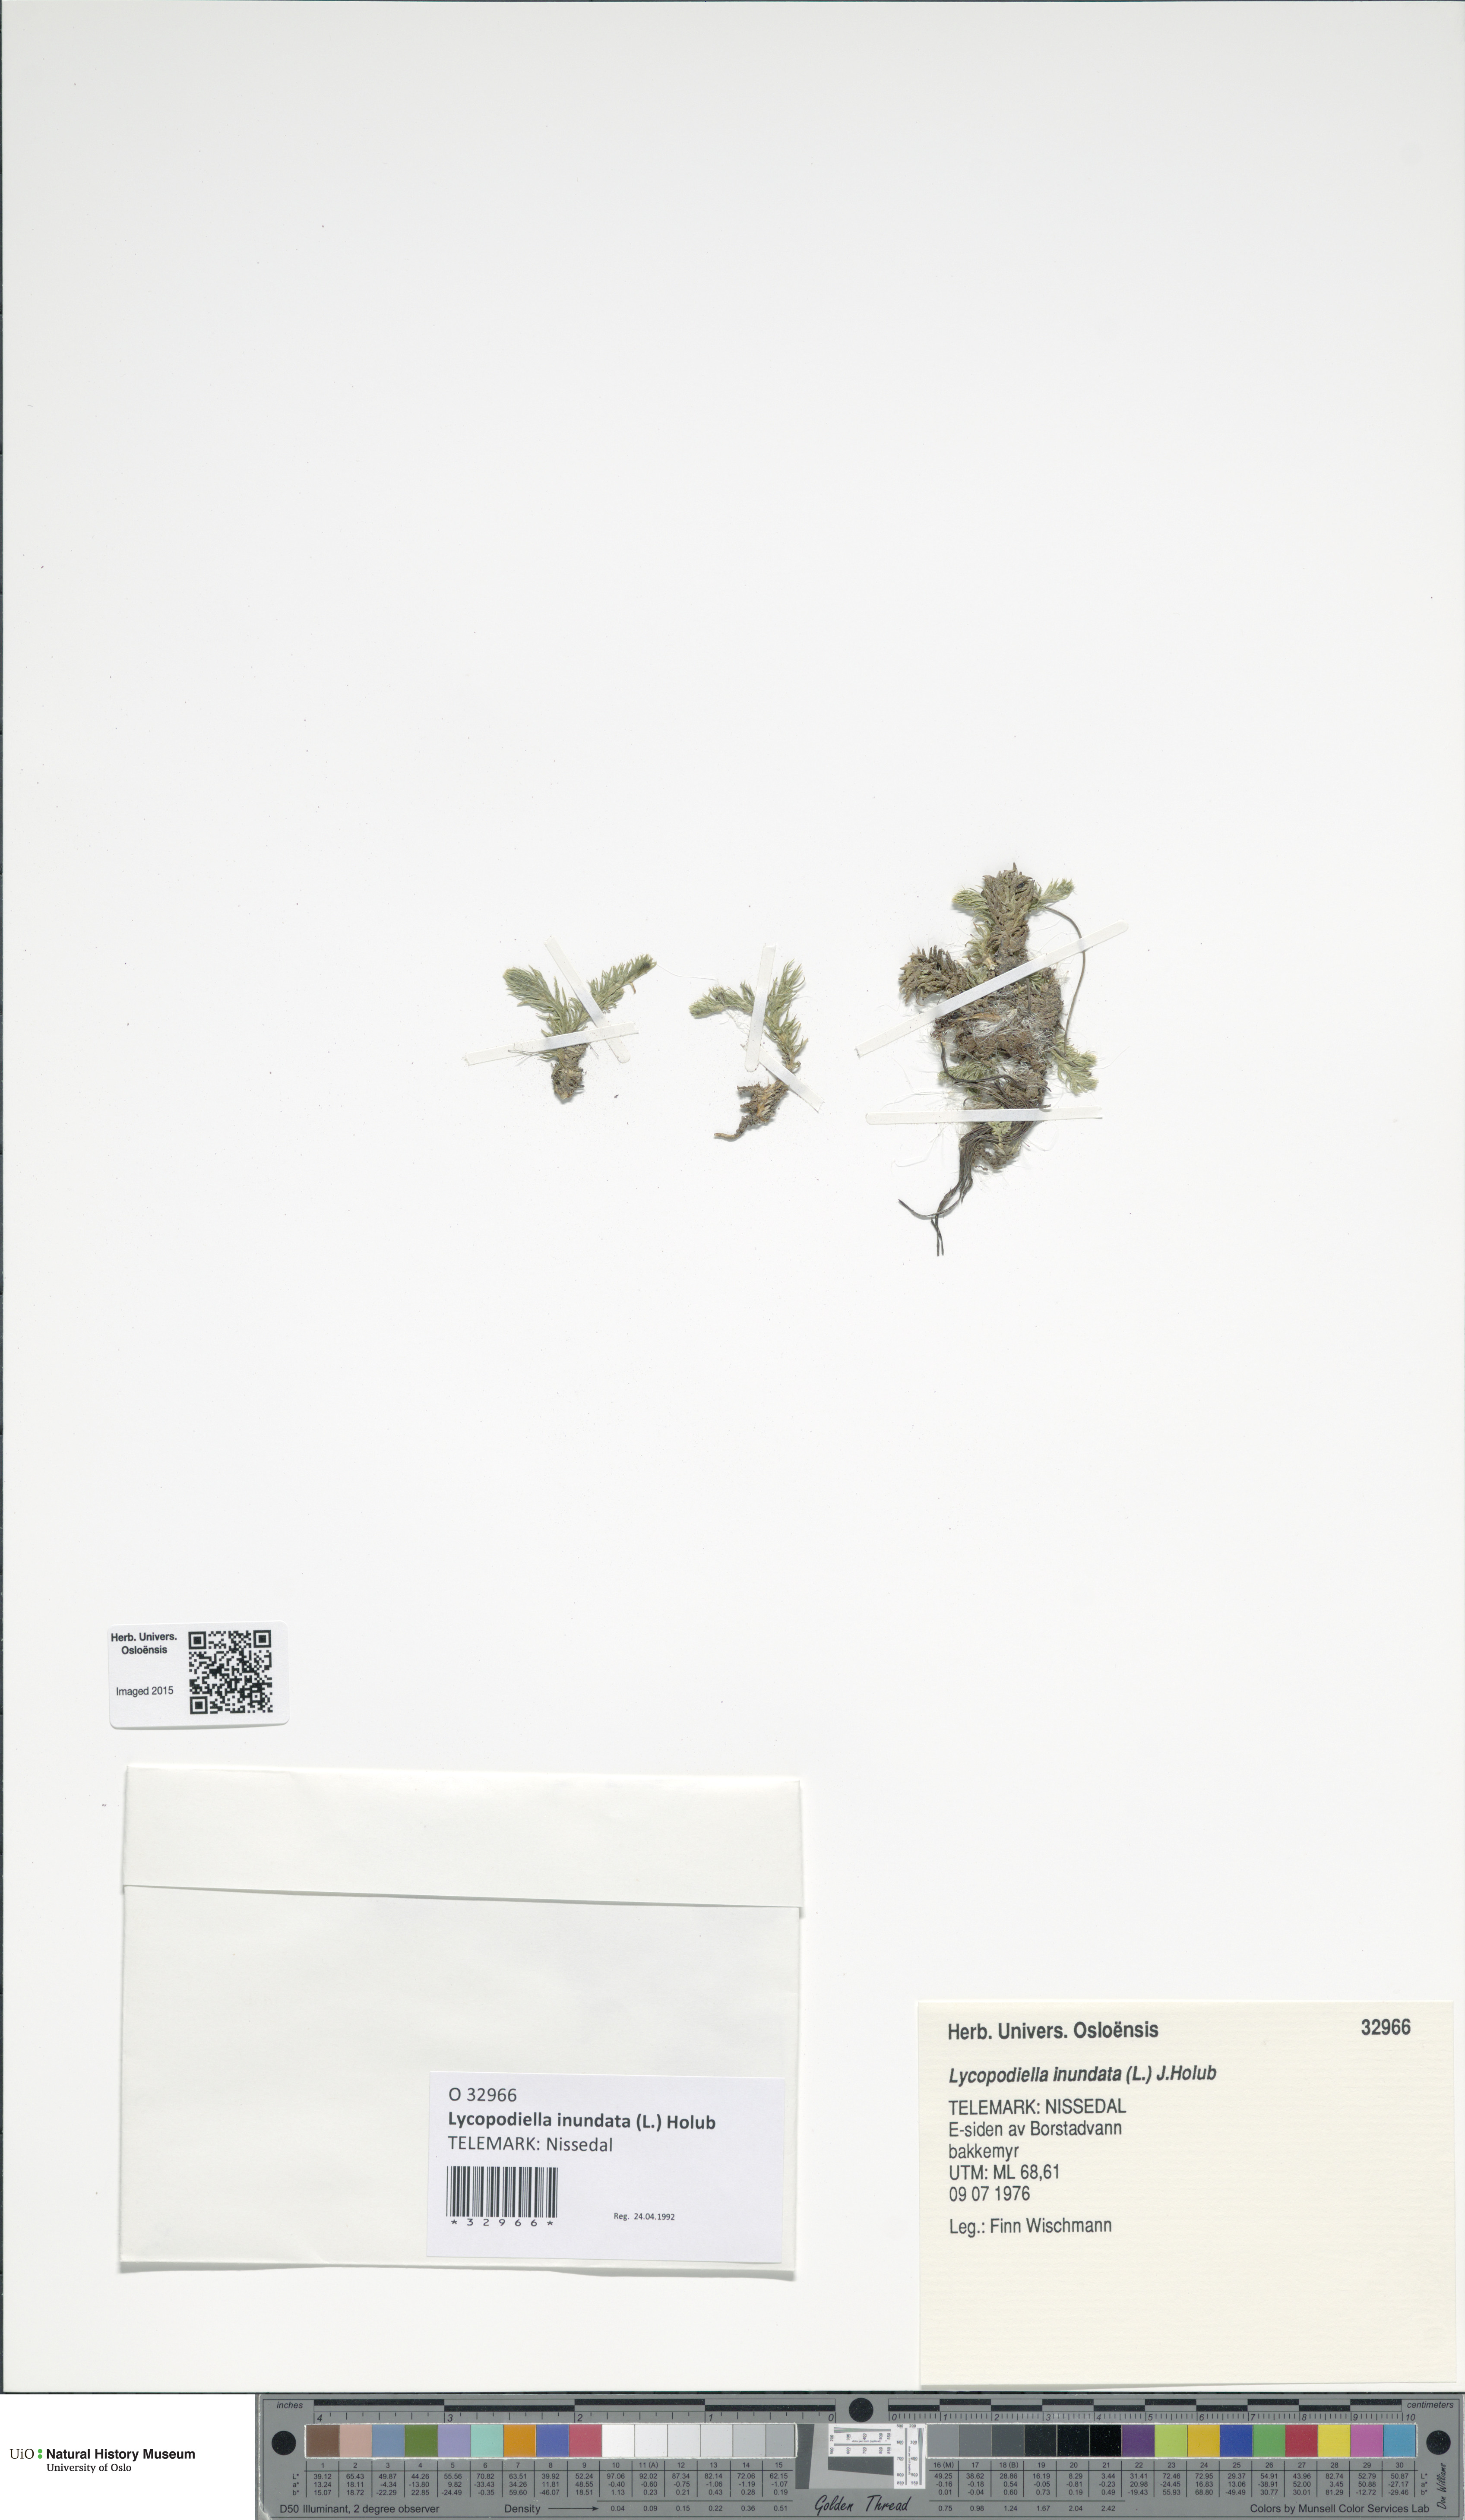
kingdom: Plantae
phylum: Tracheophyta
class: Lycopodiopsida
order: Lycopodiales
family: Lycopodiaceae
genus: Lycopodiella
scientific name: Lycopodiella inundata
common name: Marsh clubmoss
